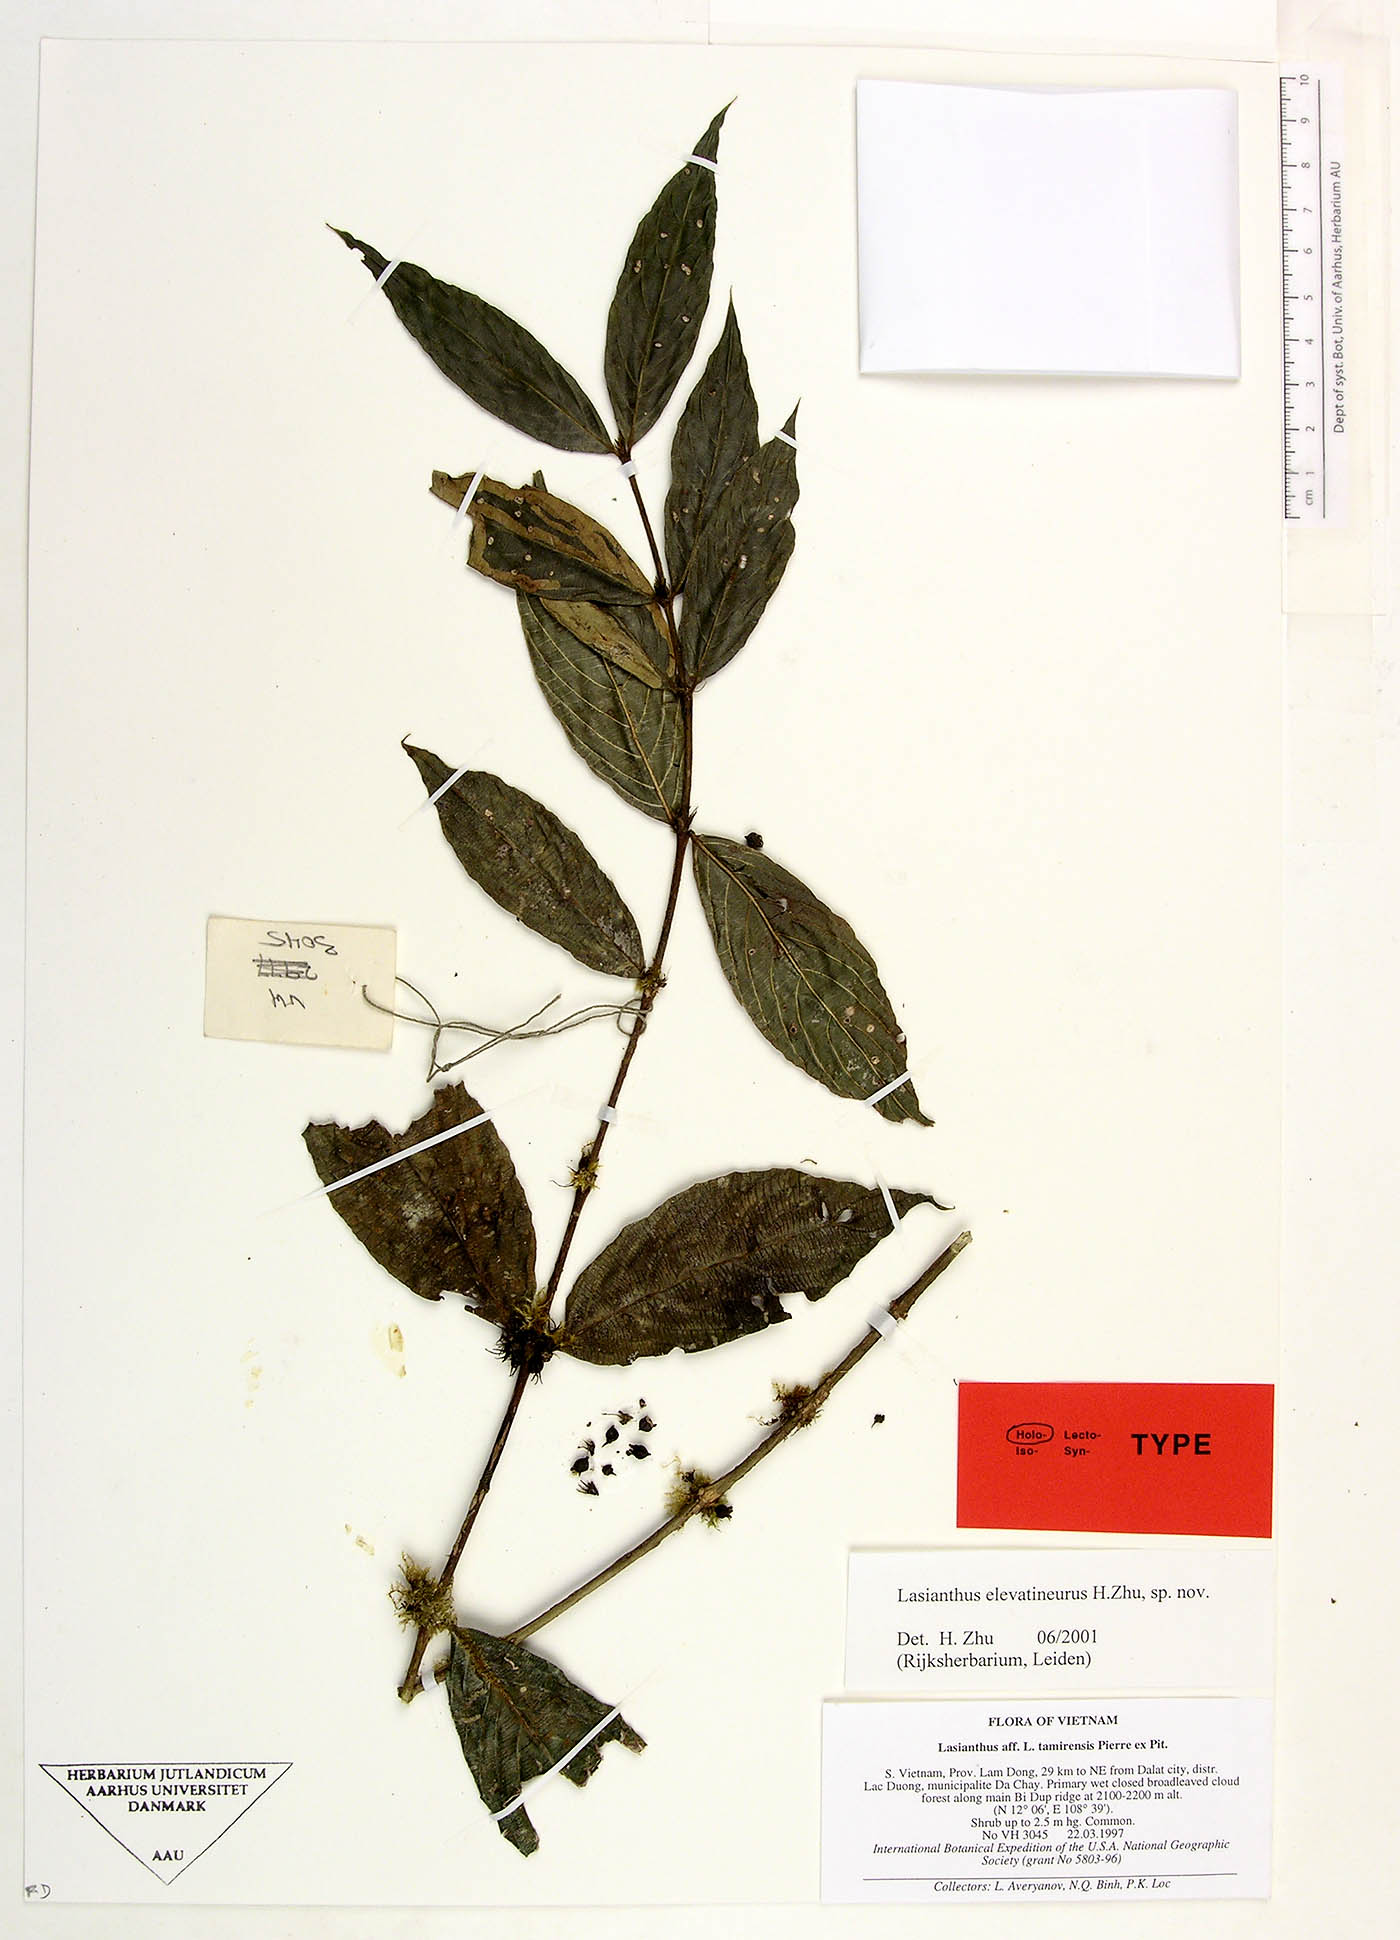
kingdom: Plantae
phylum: Tracheophyta
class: Magnoliopsida
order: Gentianales
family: Rubiaceae
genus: Lasianthus
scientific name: Lasianthus elevatineurus
